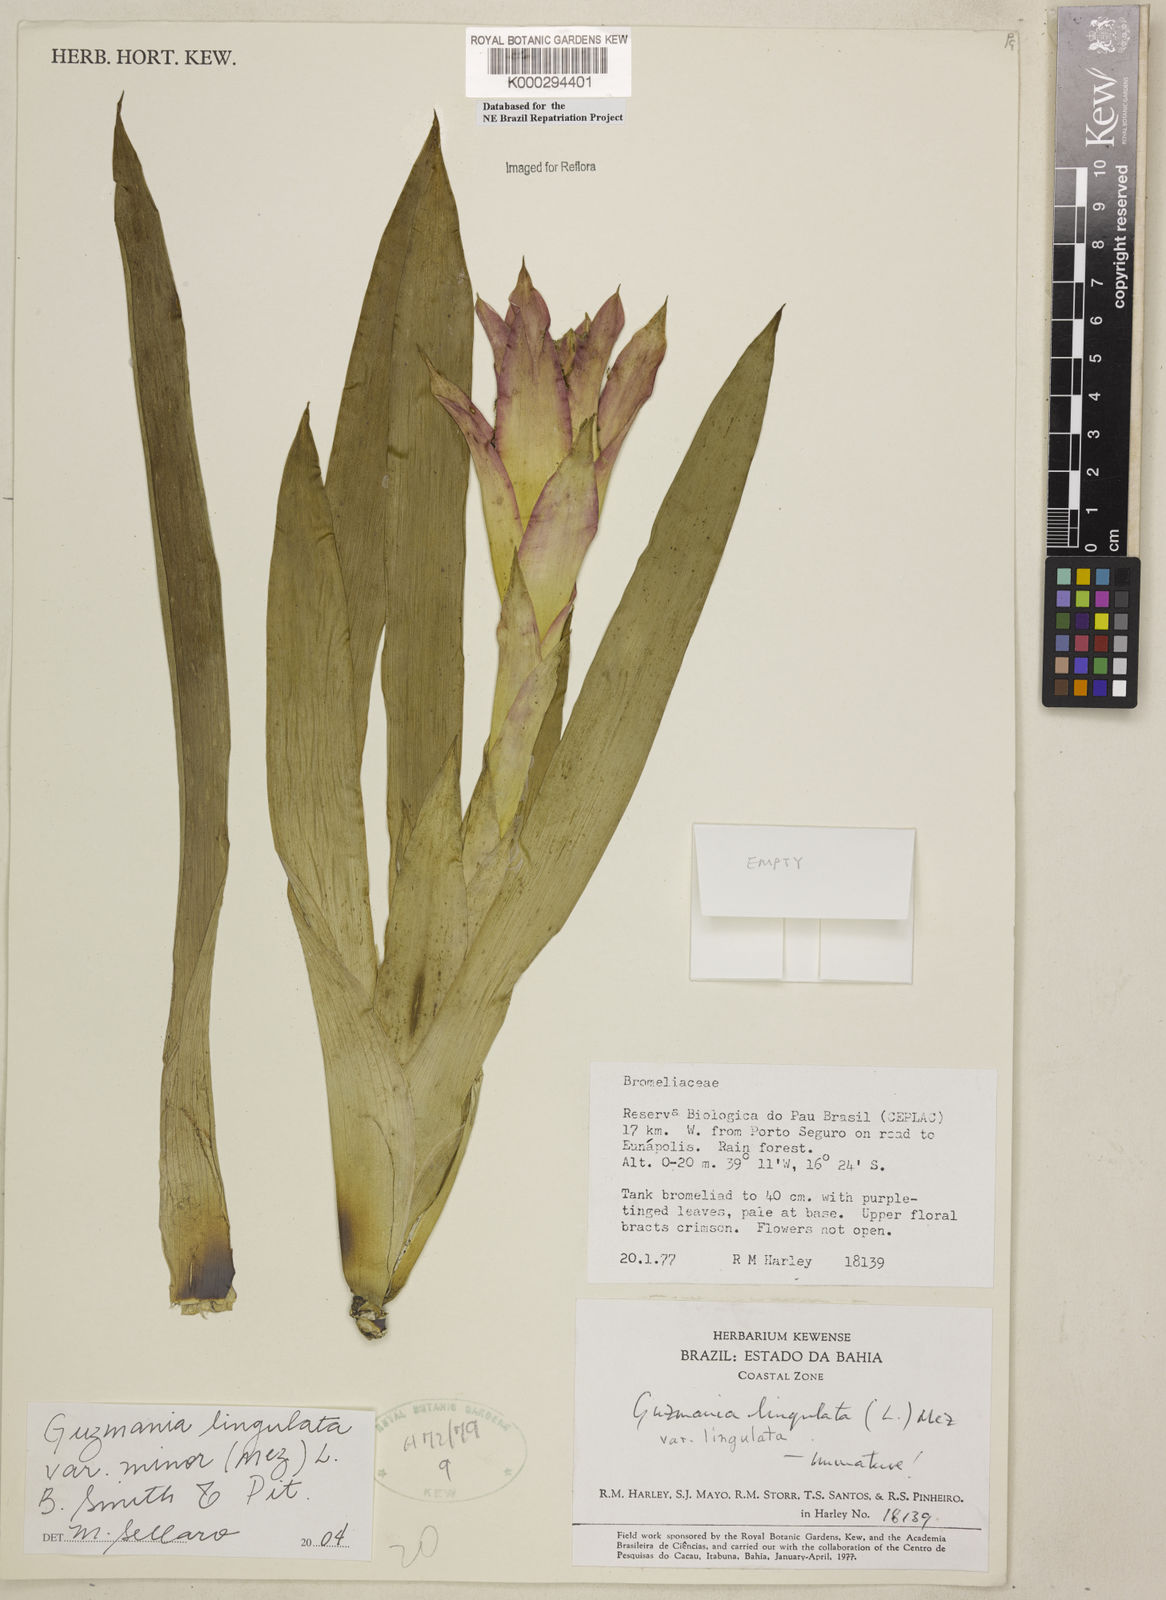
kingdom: Plantae
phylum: Tracheophyta
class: Liliopsida
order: Poales
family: Bromeliaceae
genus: Guzmania
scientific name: Guzmania lingulata
